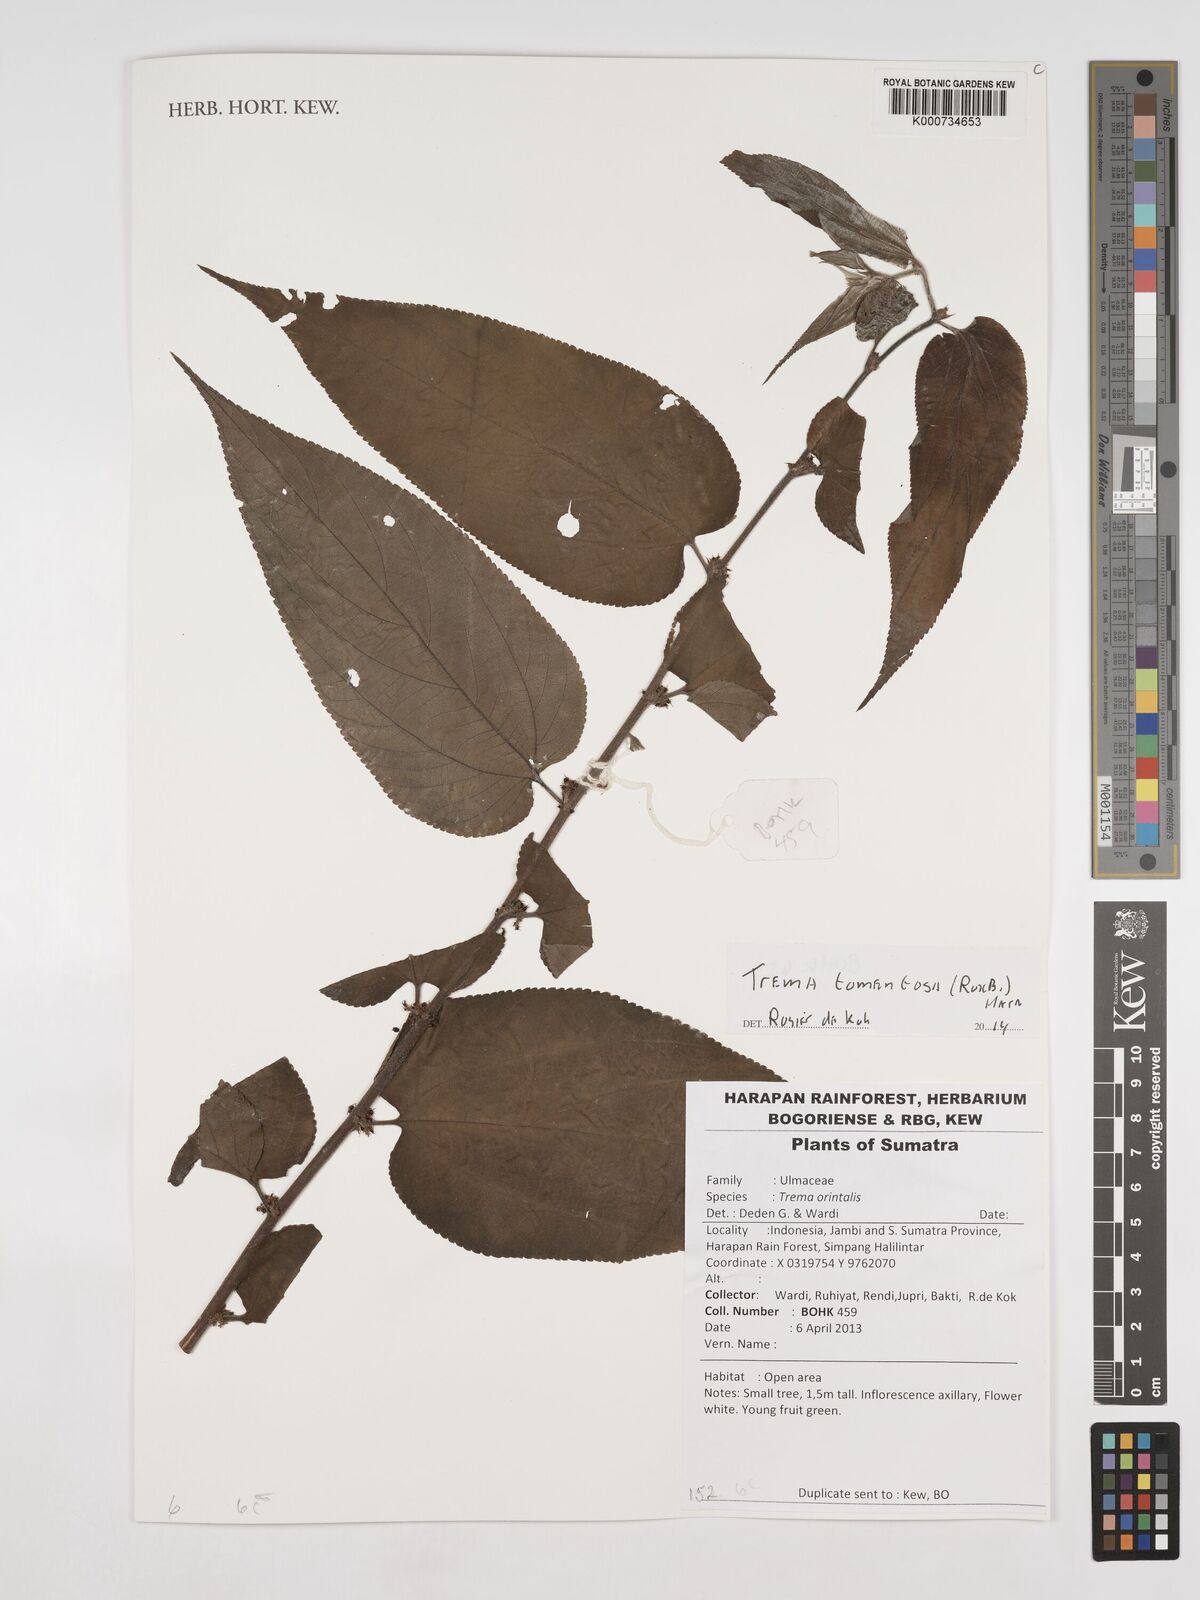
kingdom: Plantae
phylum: Tracheophyta
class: Magnoliopsida
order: Rosales
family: Cannabaceae
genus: Trema
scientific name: Trema tomentosum
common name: Peach-leaf-poisonbush
